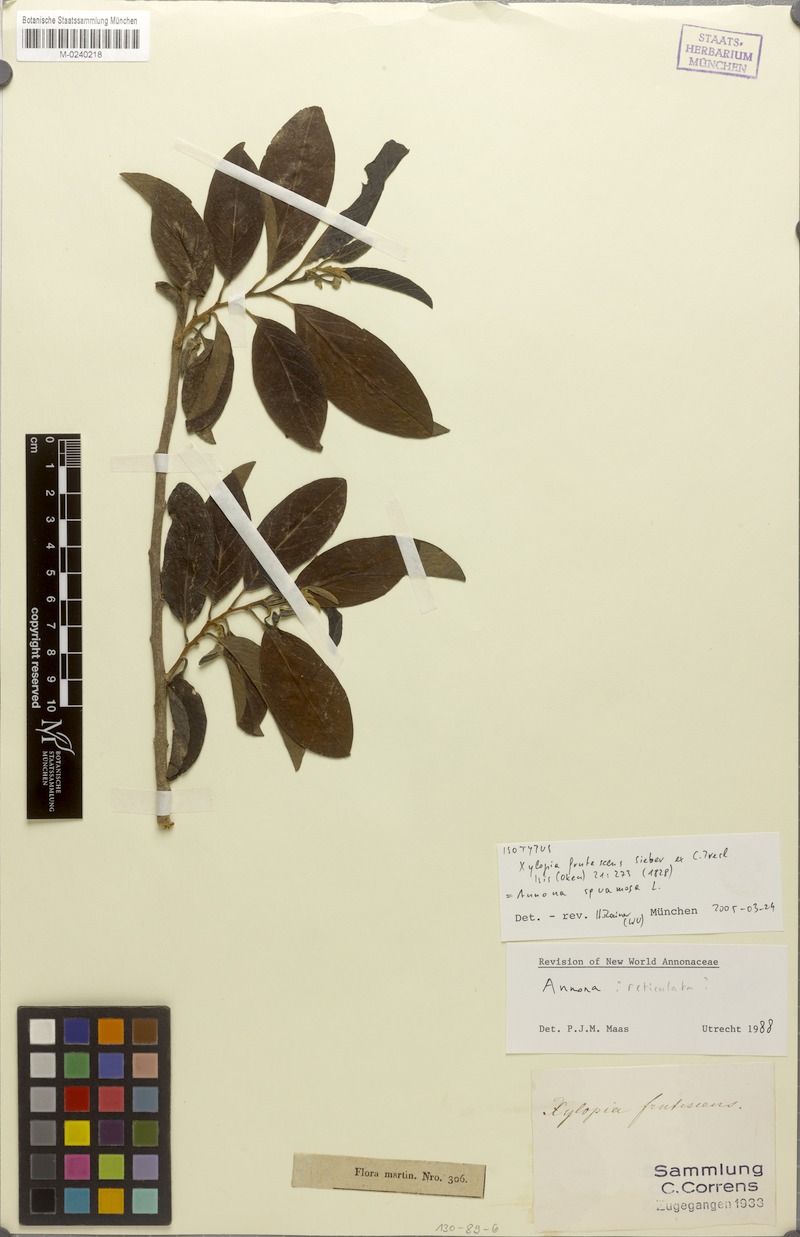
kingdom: Plantae
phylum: Tracheophyta
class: Magnoliopsida
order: Magnoliales
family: Annonaceae
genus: Annona
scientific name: Annona squamosa
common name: Custard-apple
